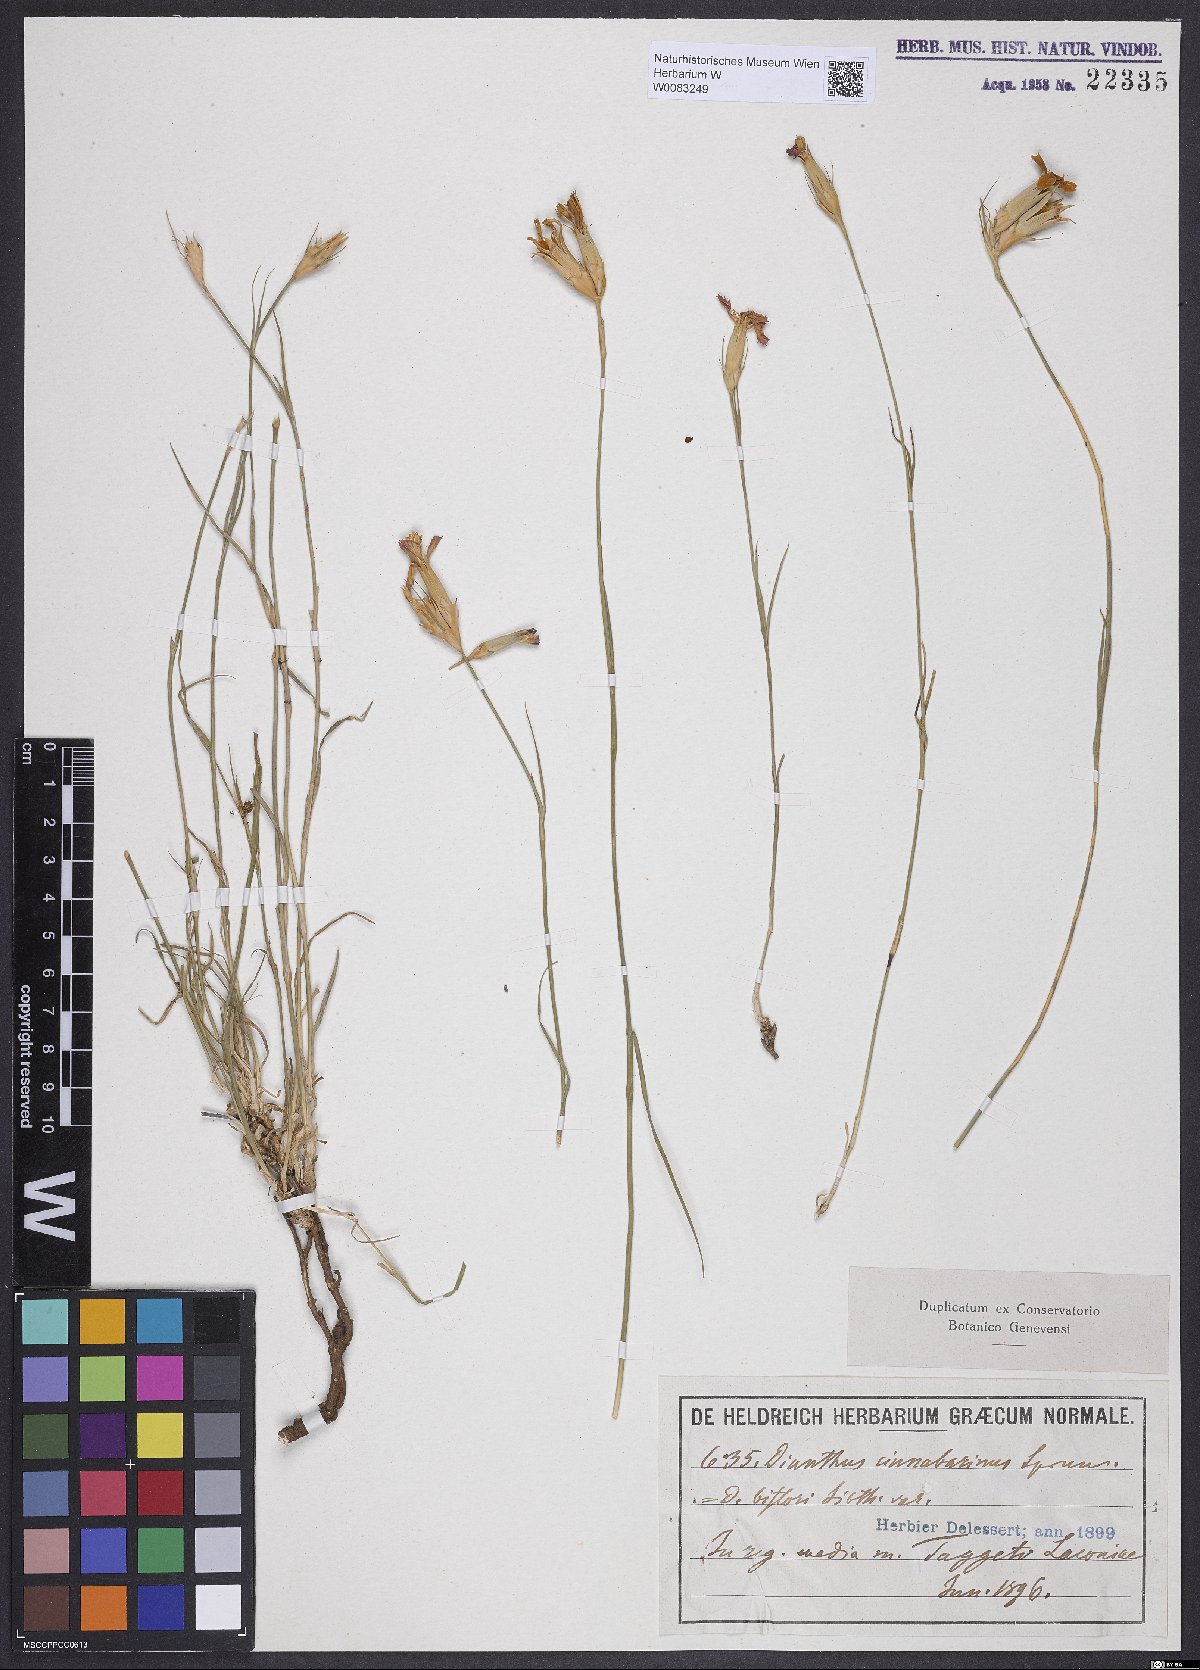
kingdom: Plantae
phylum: Tracheophyta
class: Magnoliopsida
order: Caryophyllales
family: Caryophyllaceae
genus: Dianthus
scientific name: Dianthus biflorus
